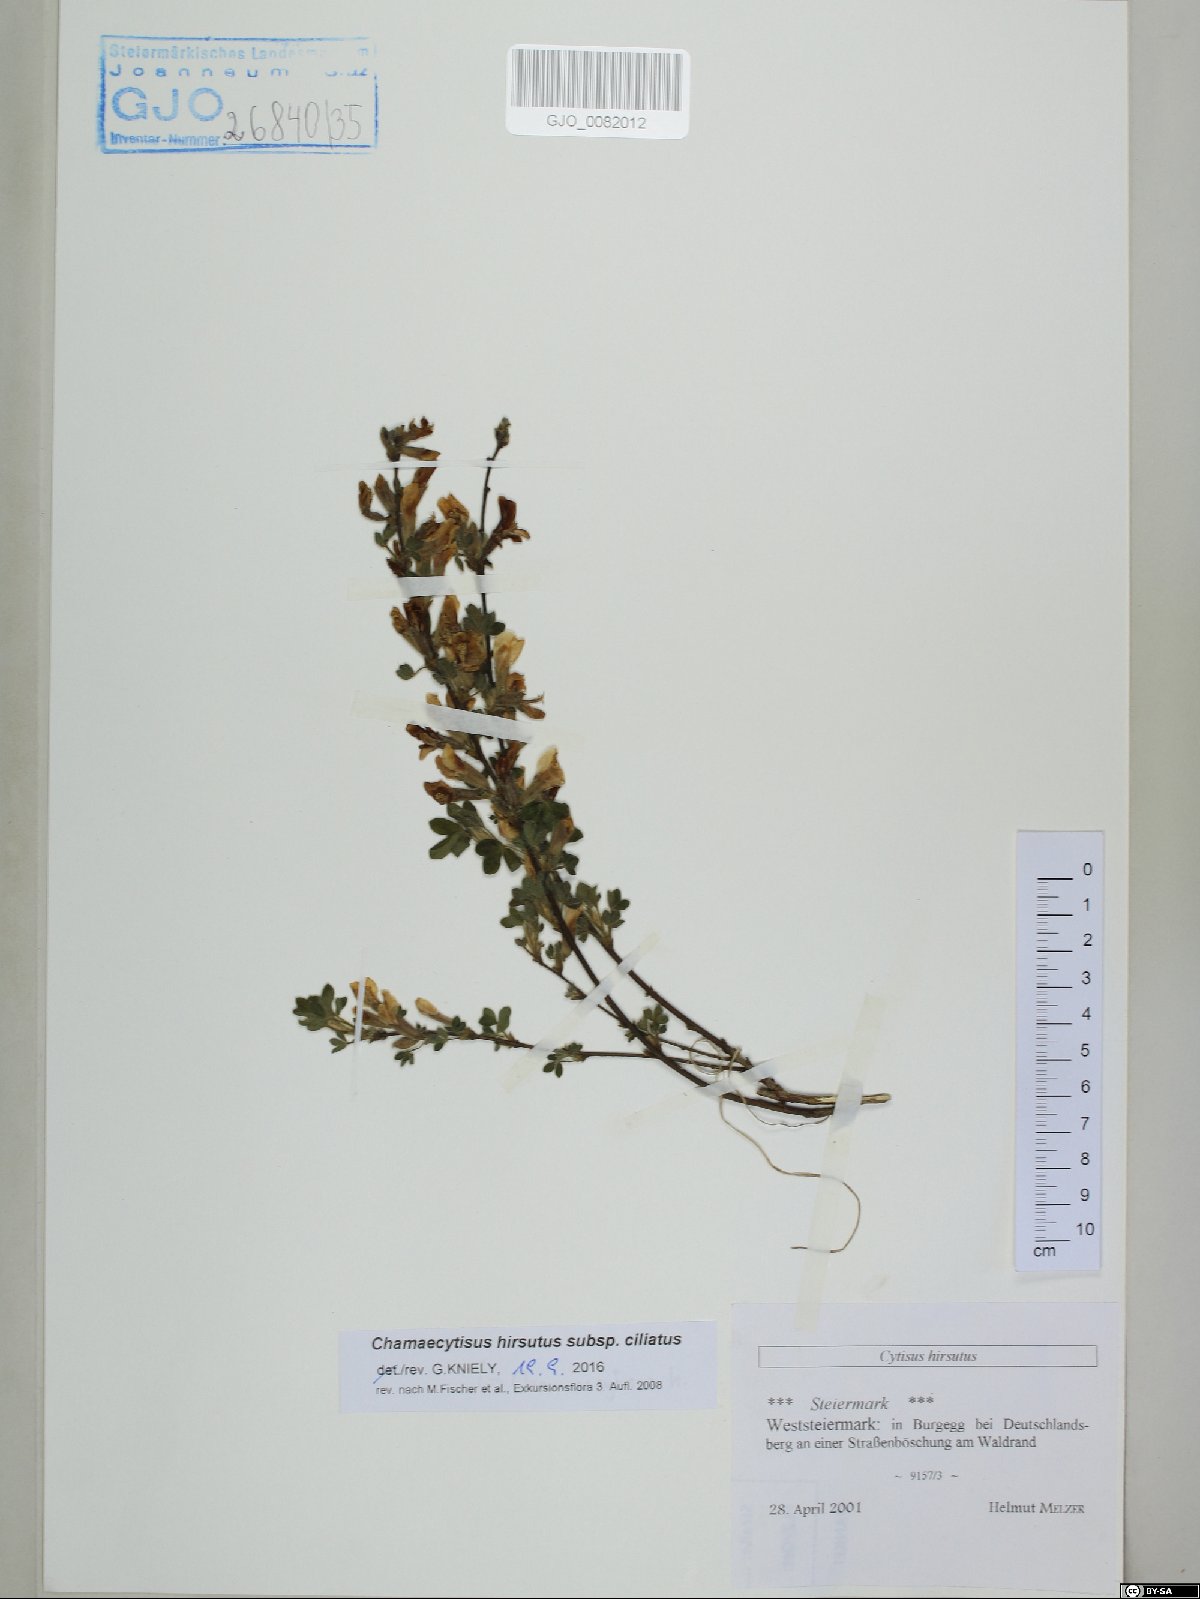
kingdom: Plantae
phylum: Tracheophyta
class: Magnoliopsida
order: Fabales
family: Fabaceae
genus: Chamaecytisus
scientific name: Chamaecytisus hirsutus
